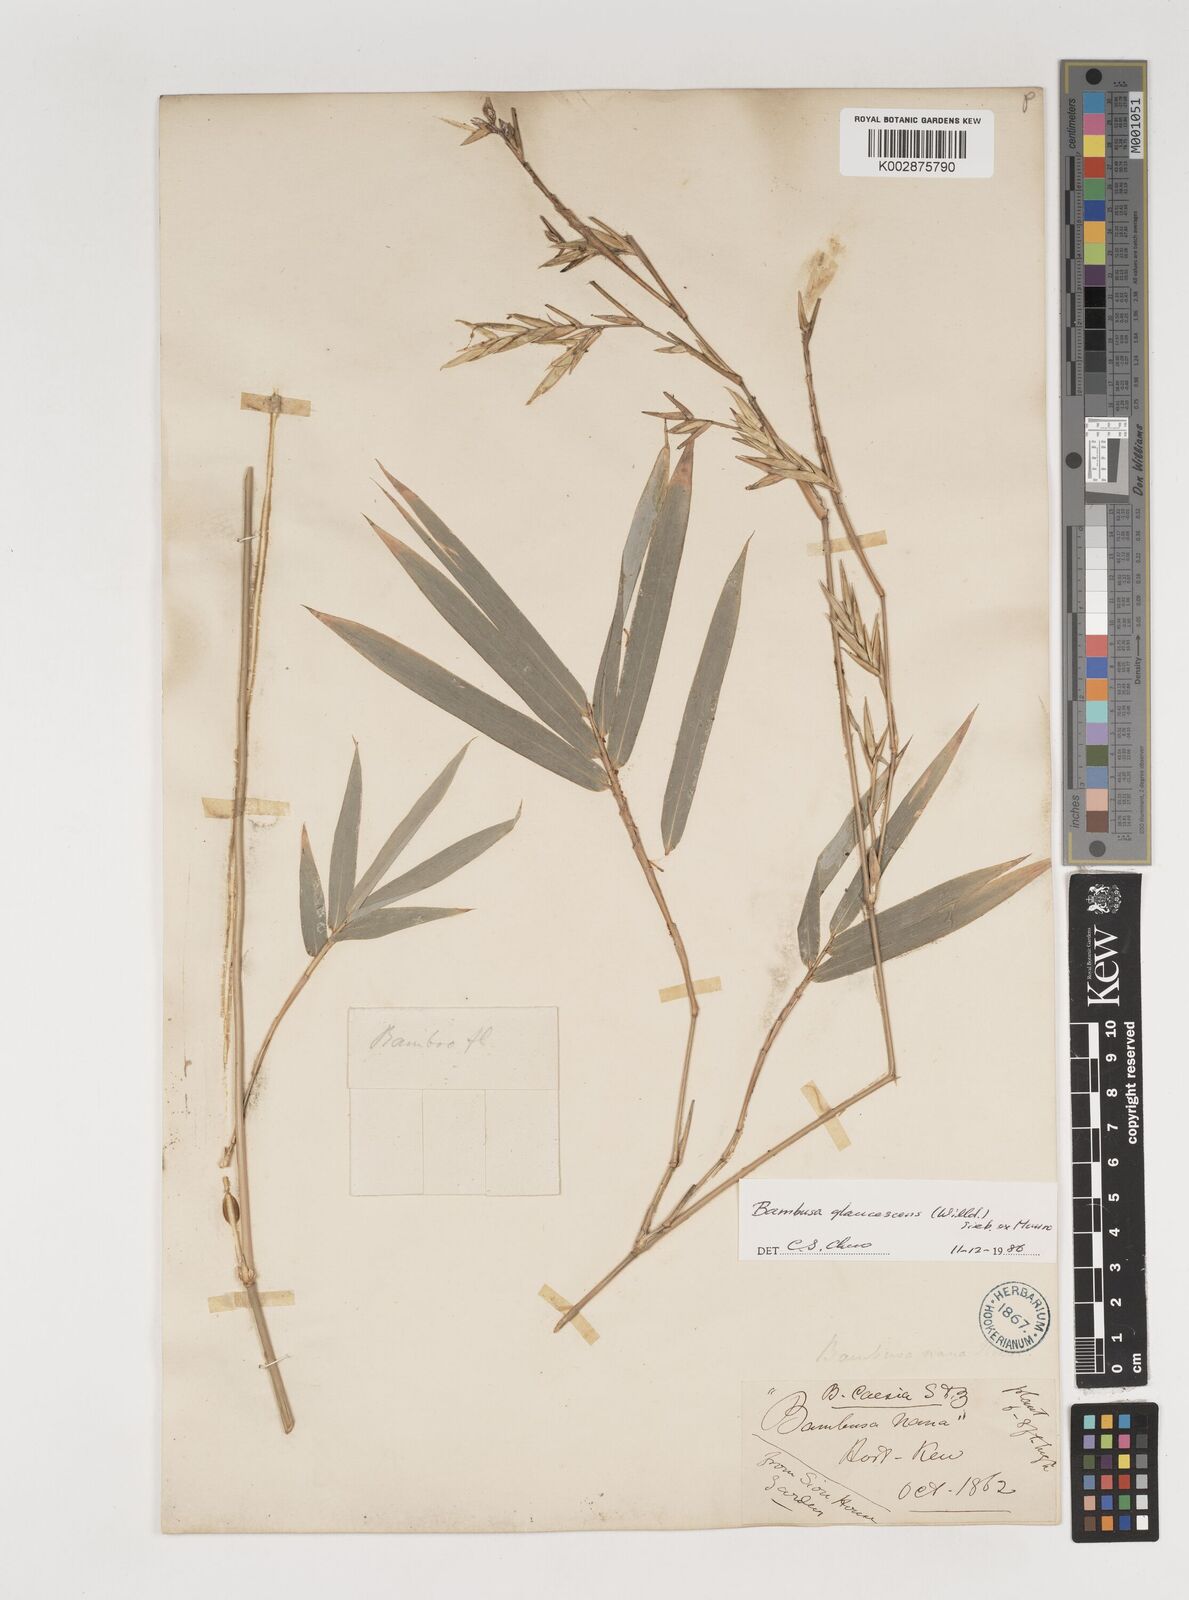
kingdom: Plantae
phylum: Tracheophyta
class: Liliopsida
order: Poales
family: Poaceae
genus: Bambusa
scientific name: Bambusa multiplex
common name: Hedge bamboo
